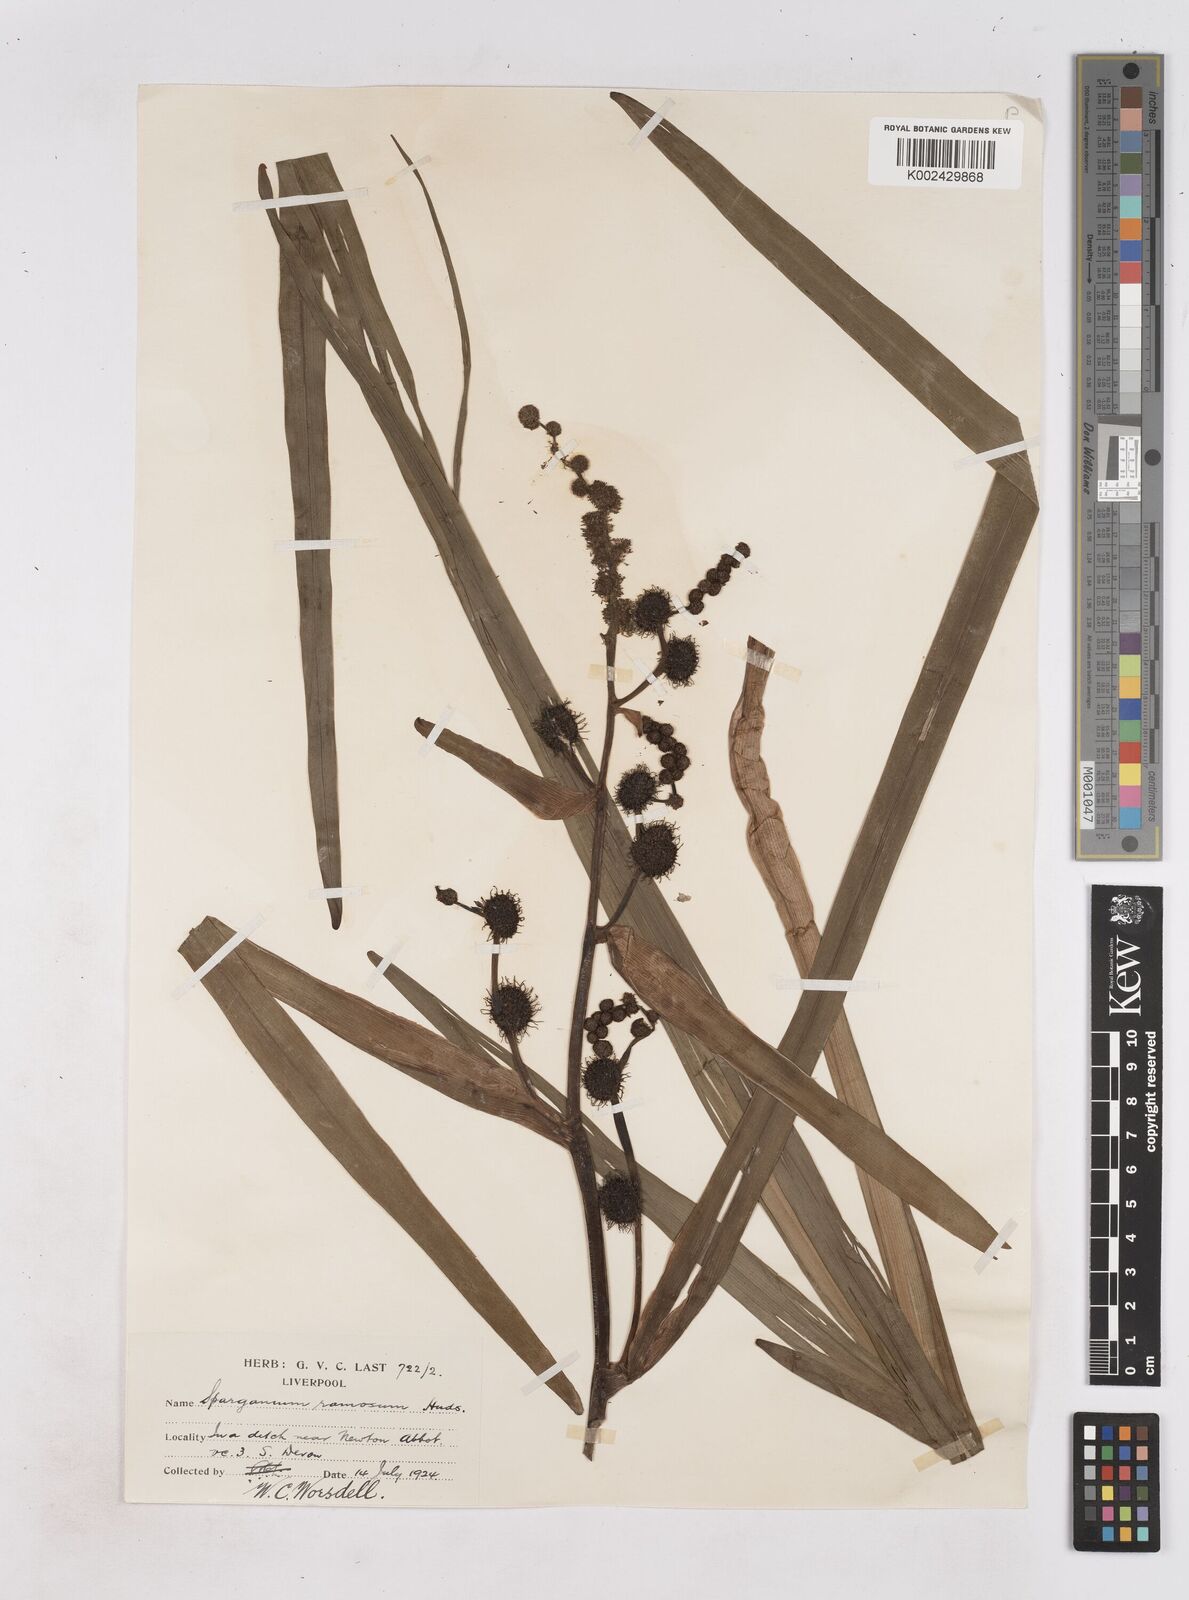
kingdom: Plantae
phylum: Tracheophyta
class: Liliopsida
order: Poales
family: Typhaceae
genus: Sparganium
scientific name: Sparganium erectum
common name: Branched bur-reed
